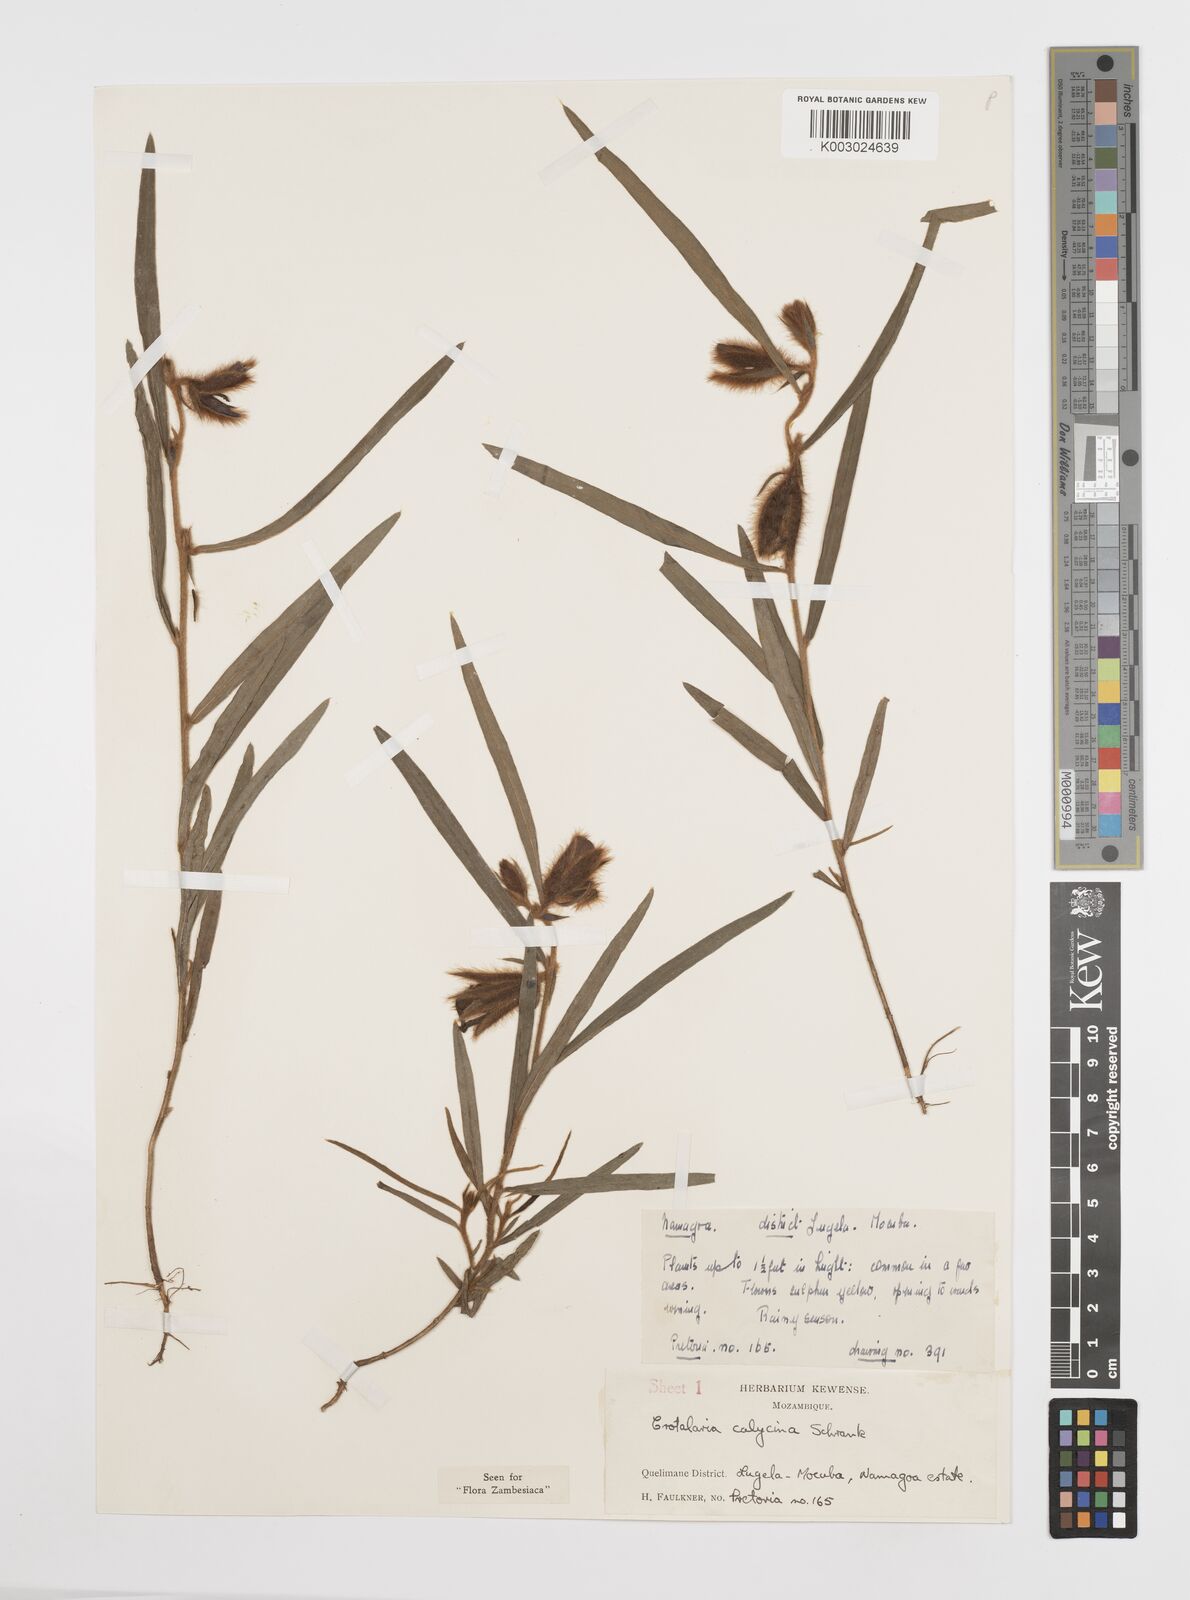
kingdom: Plantae
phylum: Tracheophyta
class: Magnoliopsida
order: Fabales
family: Fabaceae
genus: Crotalaria
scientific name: Crotalaria calycina
